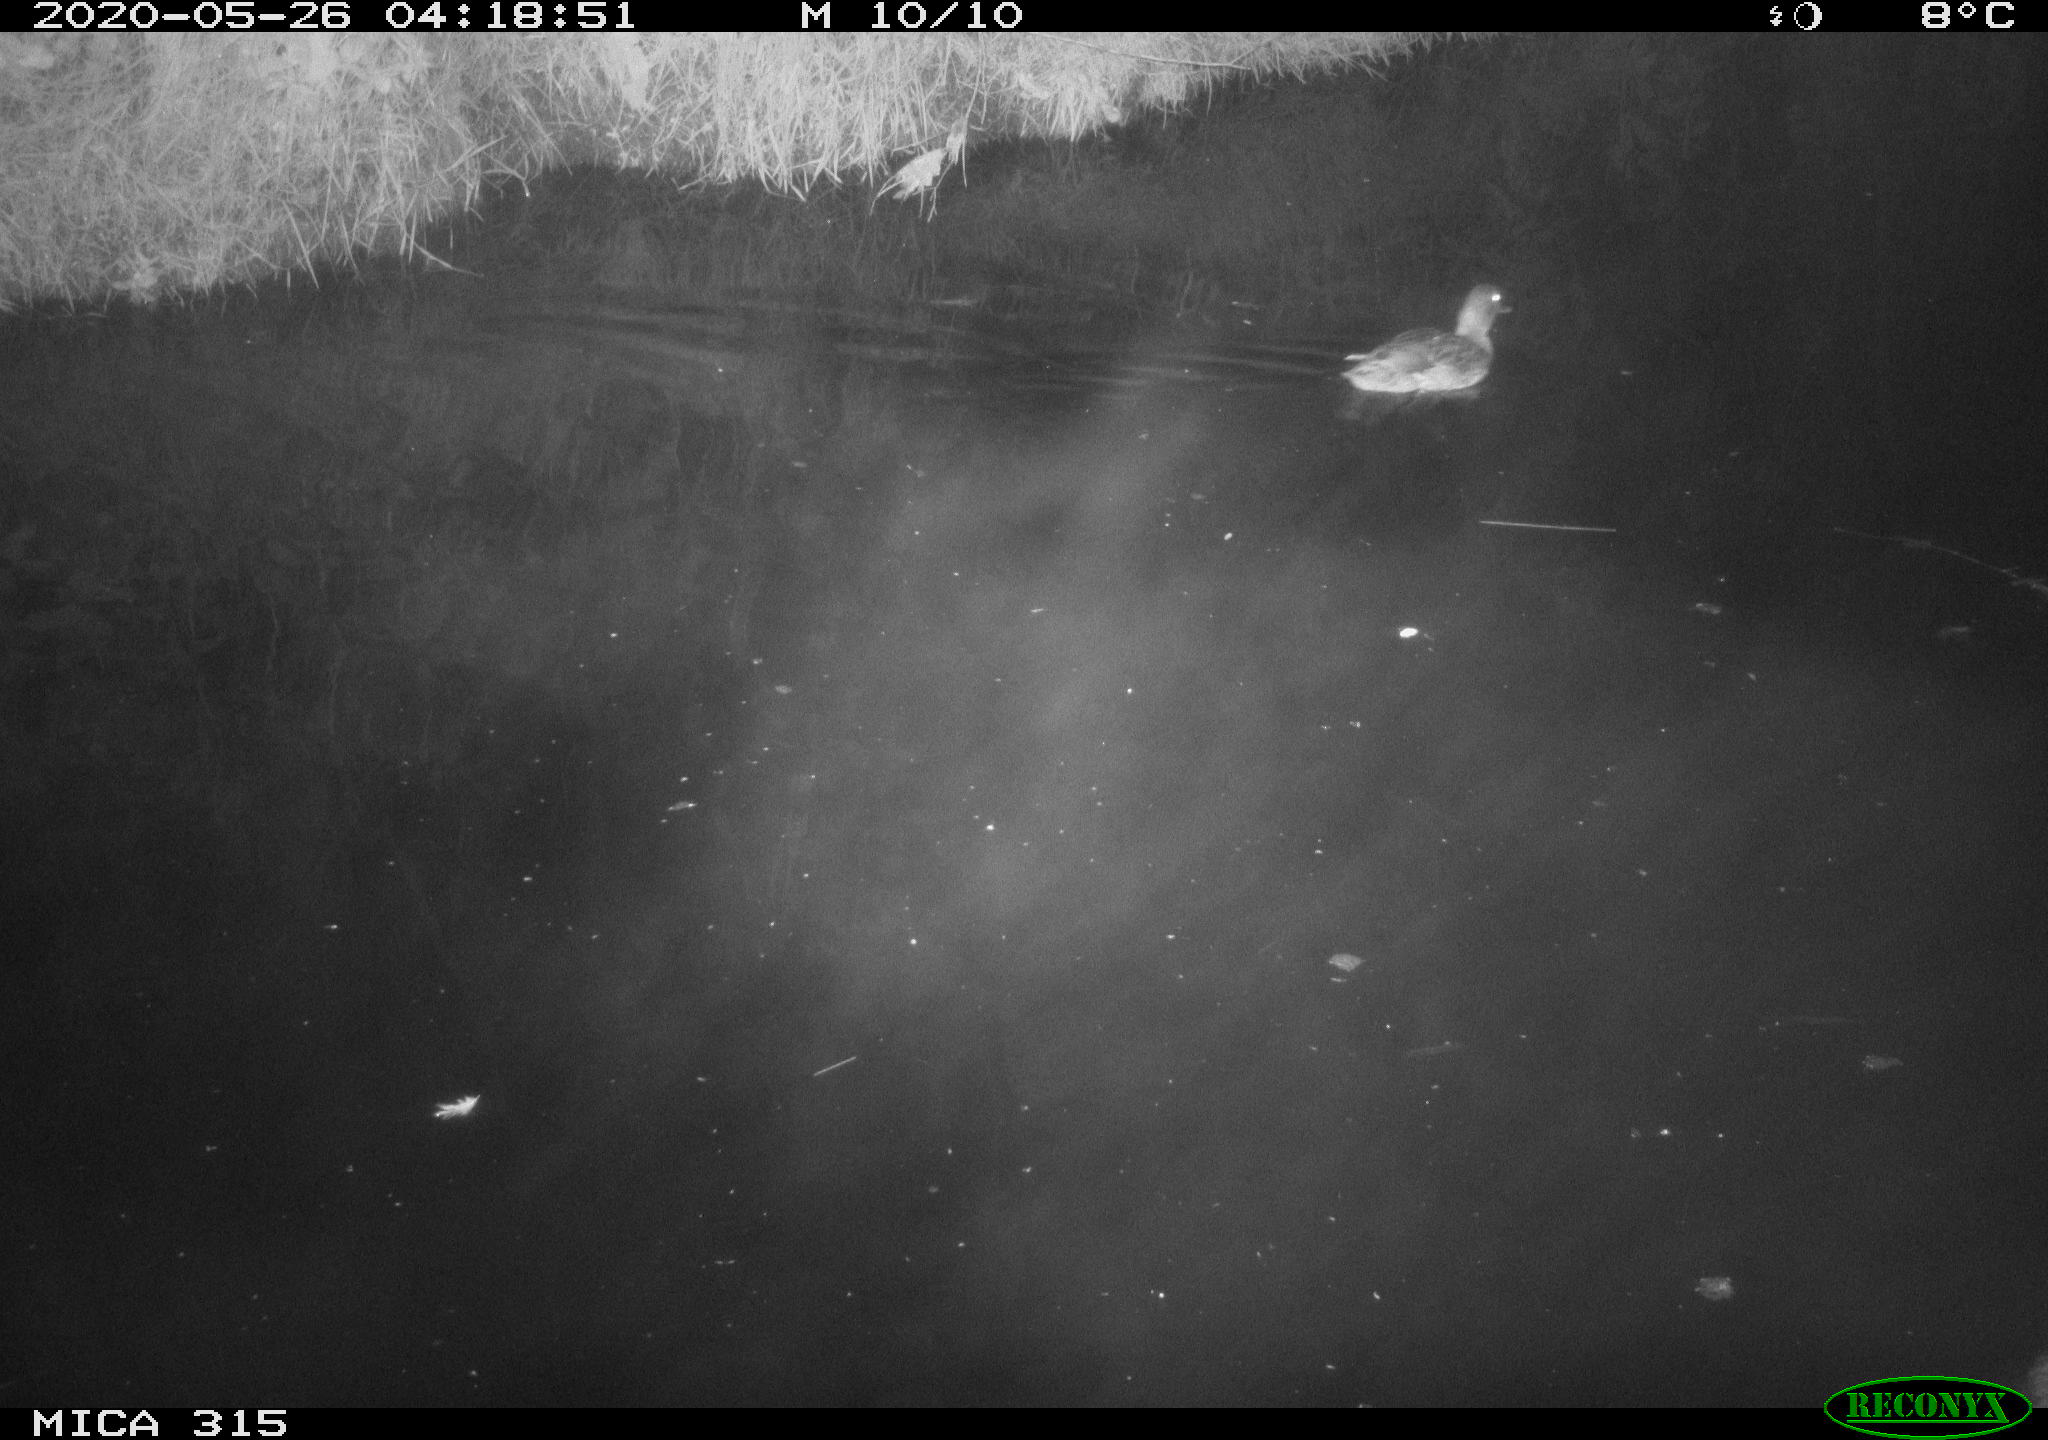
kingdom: Animalia
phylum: Chordata
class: Aves
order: Anseriformes
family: Anatidae
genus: Anas
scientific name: Anas platyrhynchos
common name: Mallard
